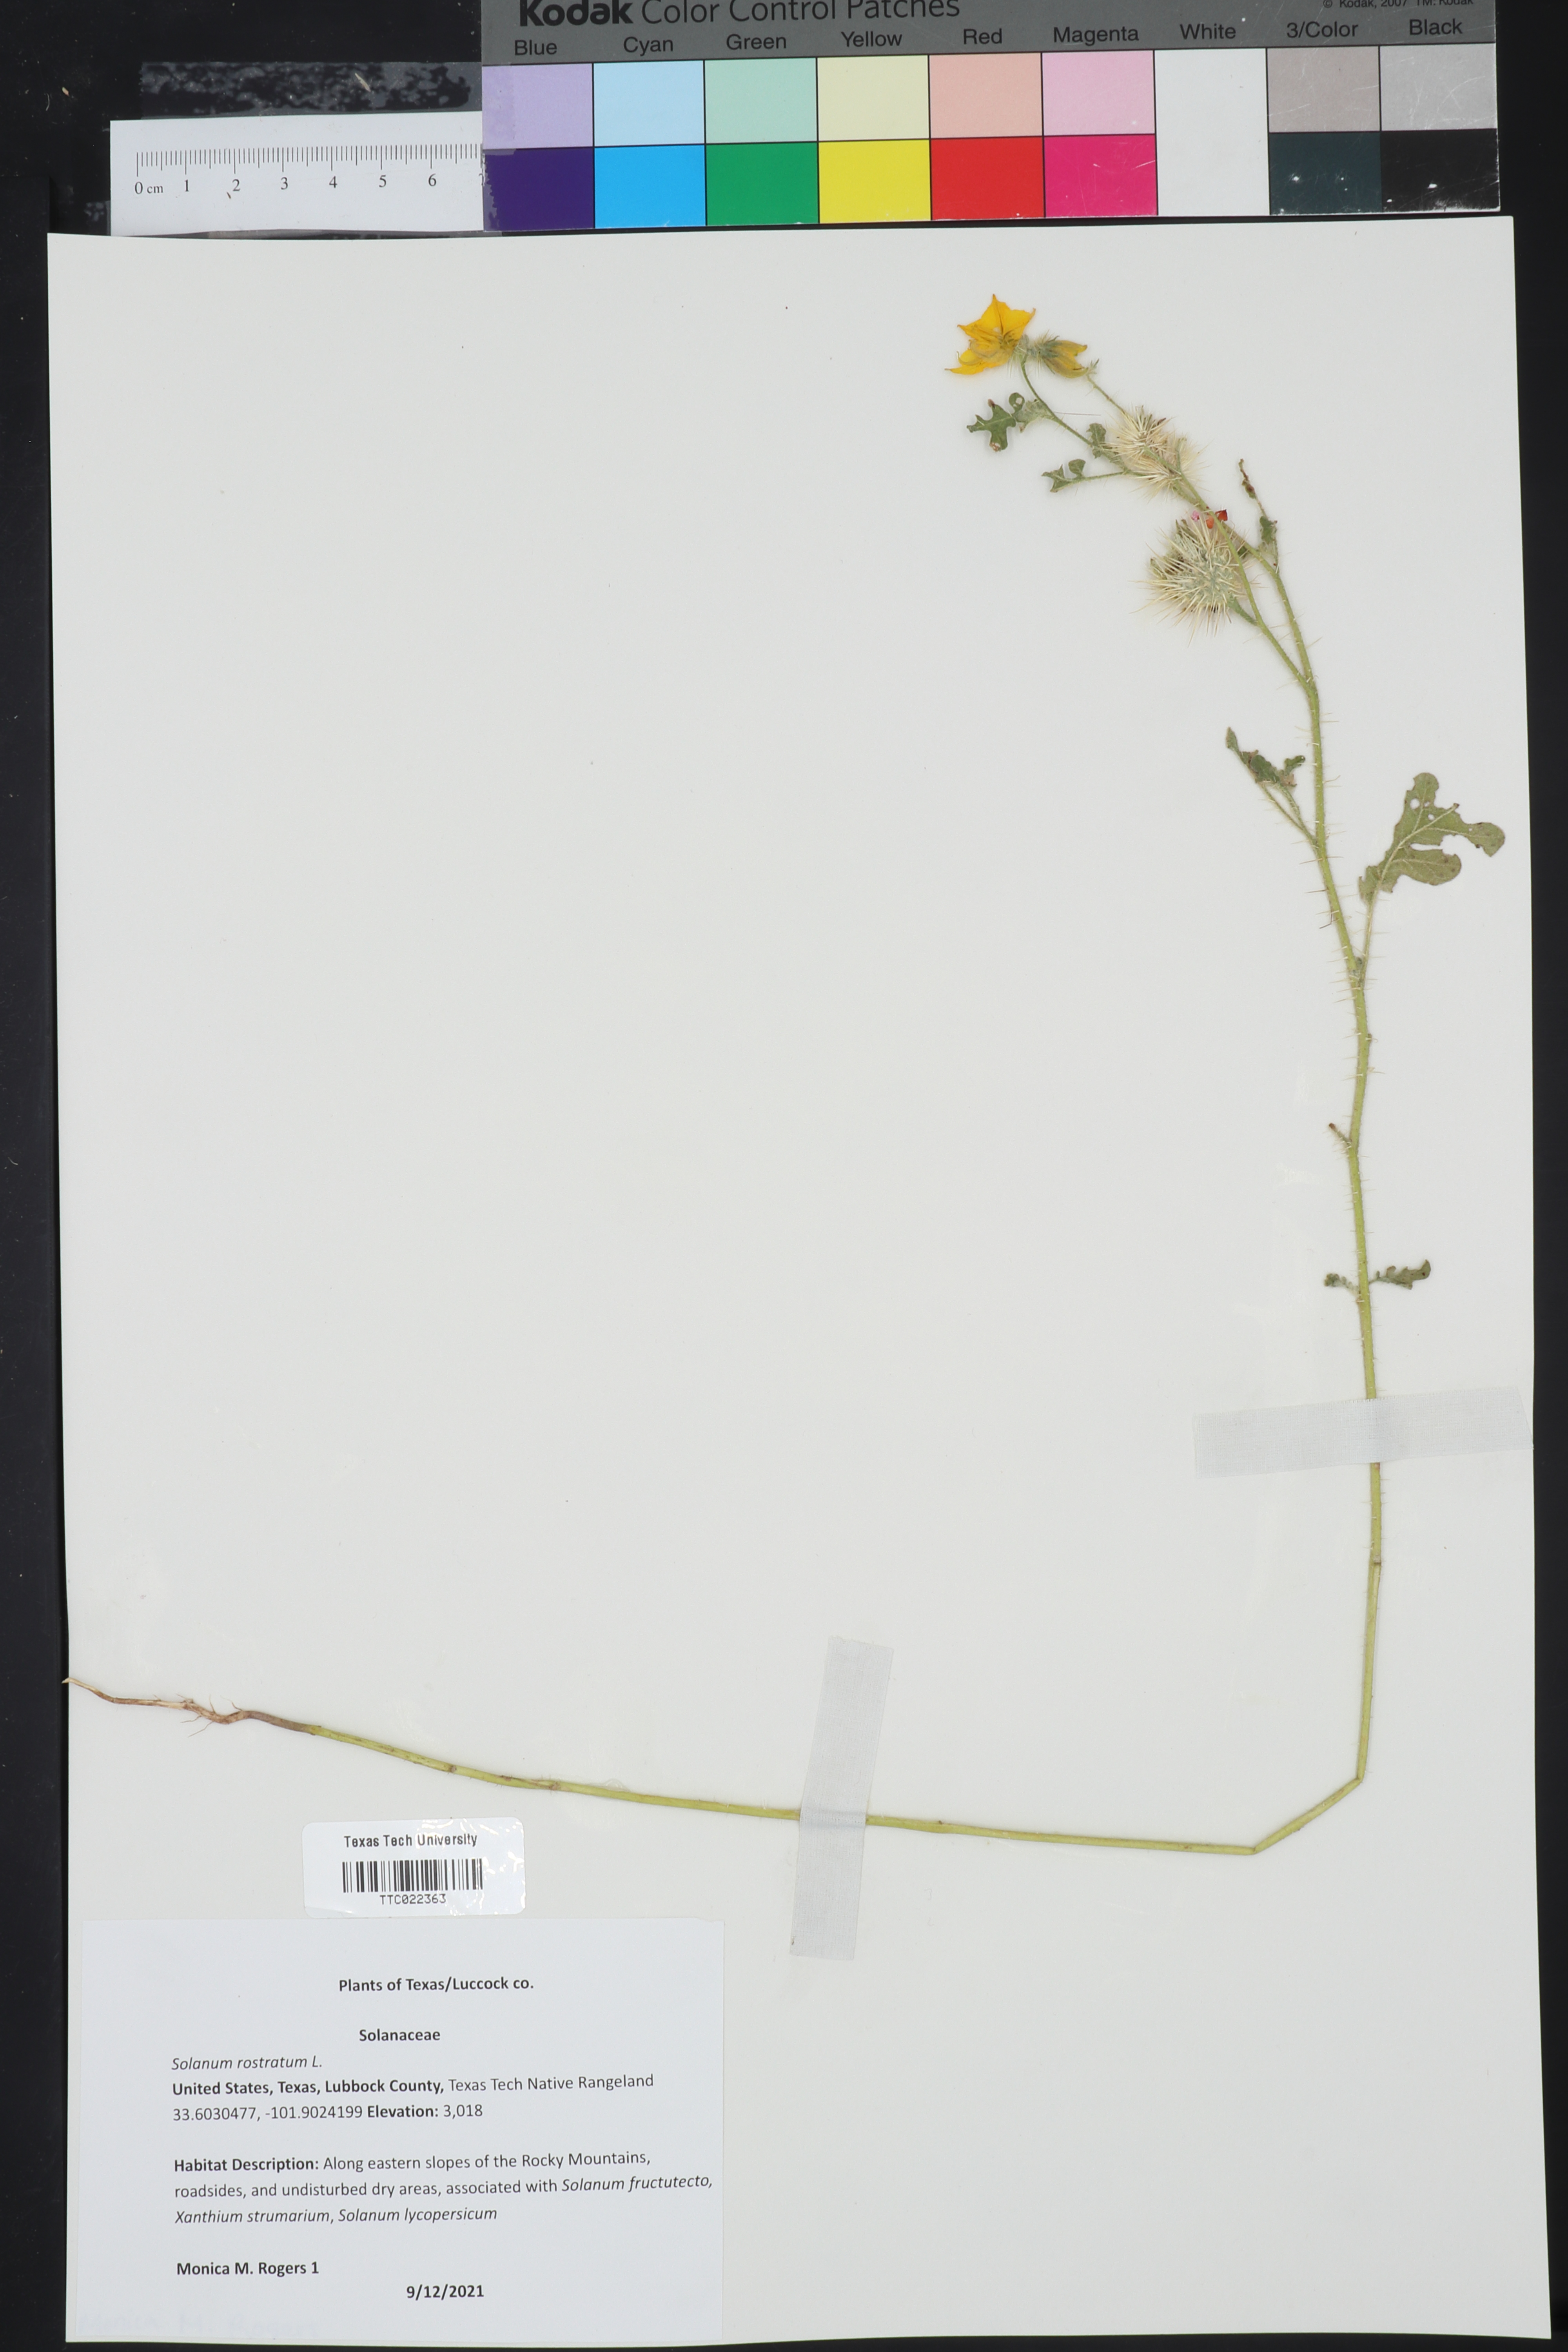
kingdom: Plantae
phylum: Tracheophyta
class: Magnoliopsida
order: Solanales
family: Solanaceae
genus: Solanum
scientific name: Solanum angustifolium
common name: Buffalobur nightshade
